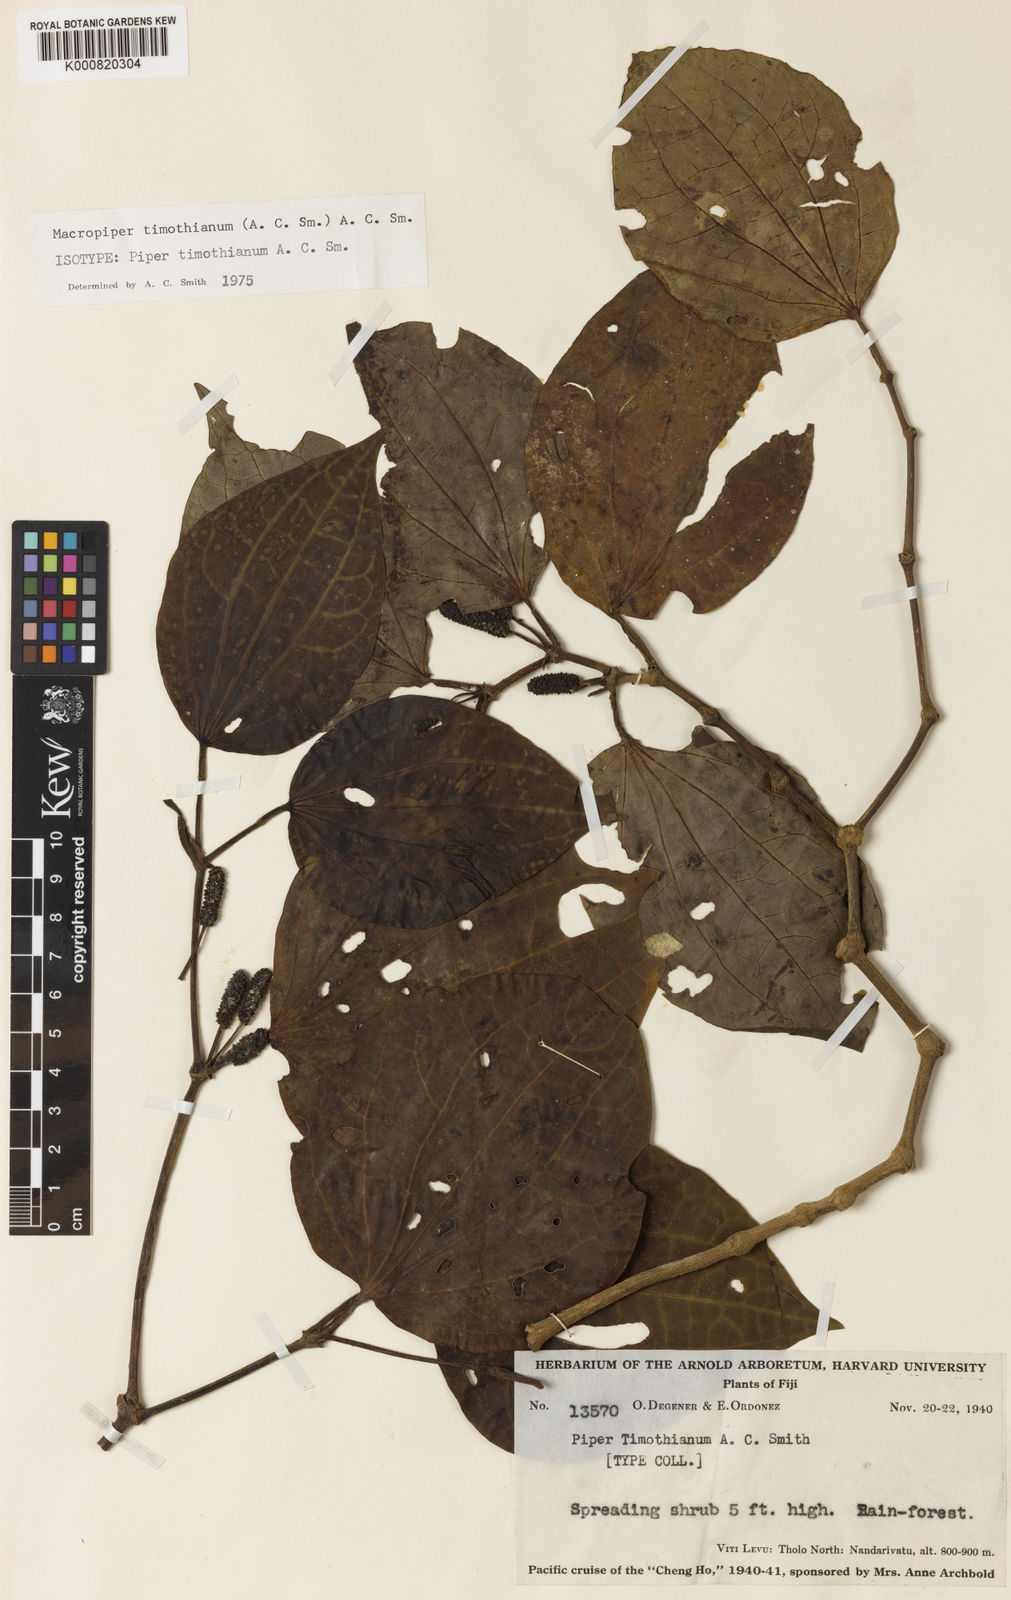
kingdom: Plantae
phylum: Tracheophyta
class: Magnoliopsida
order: Piperales
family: Piperaceae
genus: Macropiper
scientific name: Macropiper timothianum
